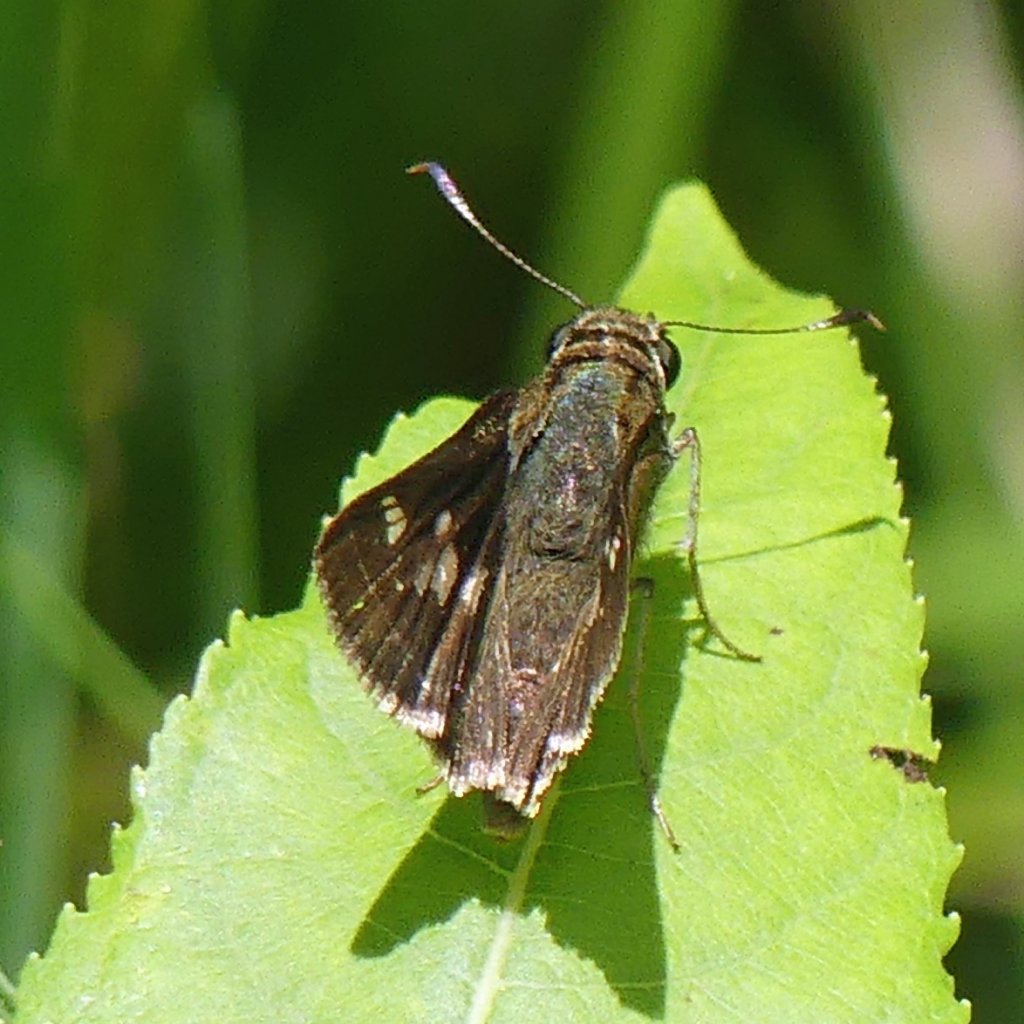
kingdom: Animalia
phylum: Arthropoda
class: Insecta
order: Lepidoptera
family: Hesperiidae
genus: Vernia
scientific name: Vernia verna
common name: Little Glassywing
